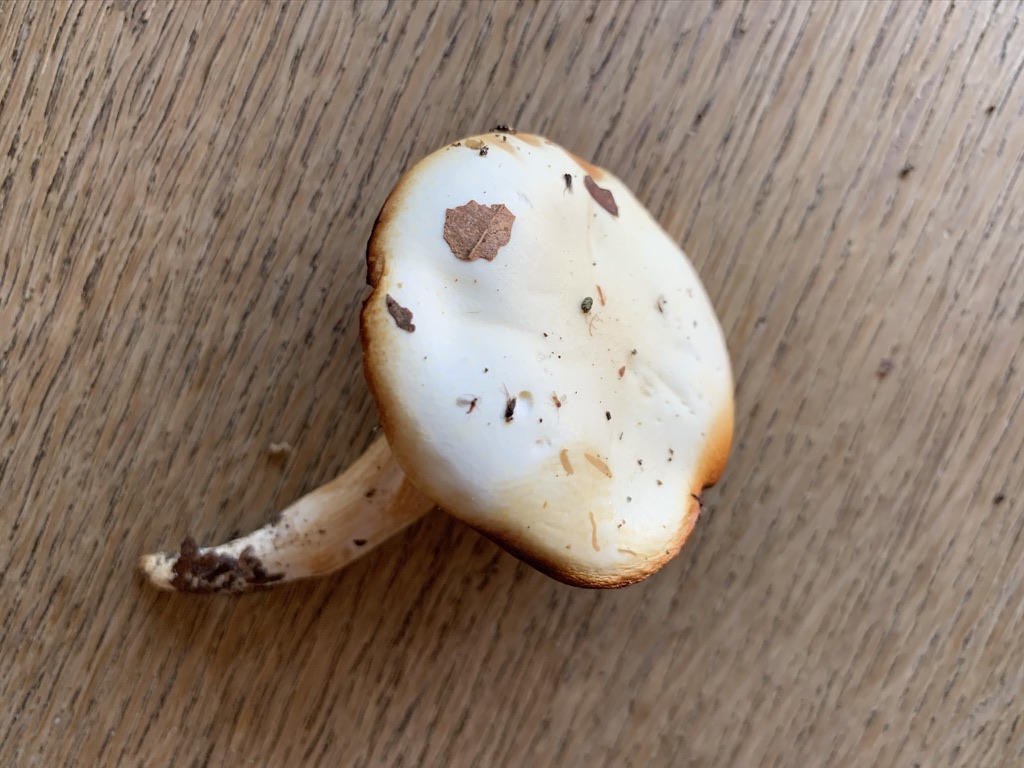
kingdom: Fungi
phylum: Basidiomycota
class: Agaricomycetes
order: Agaricales
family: Hygrophoraceae
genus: Hygrophorus
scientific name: Hygrophorus discoxanthus
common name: ildelugtende sneglehat
